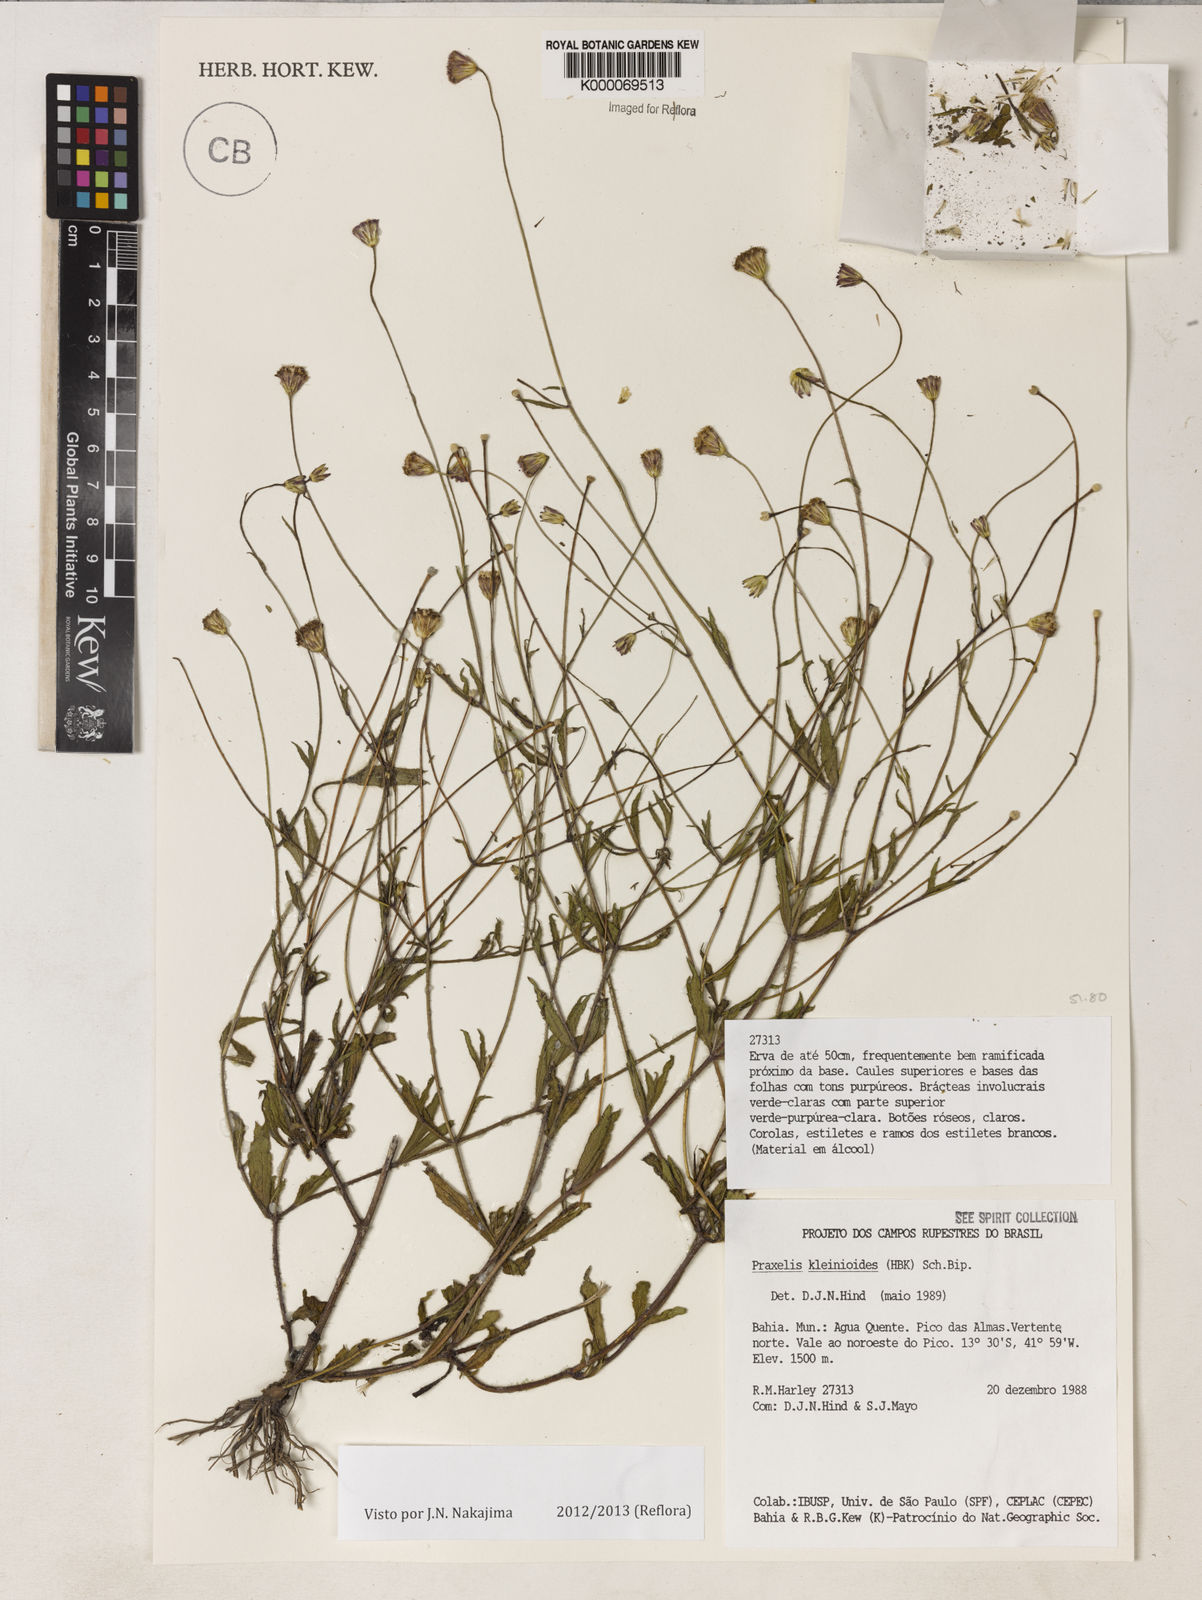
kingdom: Plantae
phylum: Tracheophyta
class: Magnoliopsida
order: Asterales
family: Asteraceae
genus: Praxelis
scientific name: Praxelis kleinioides
